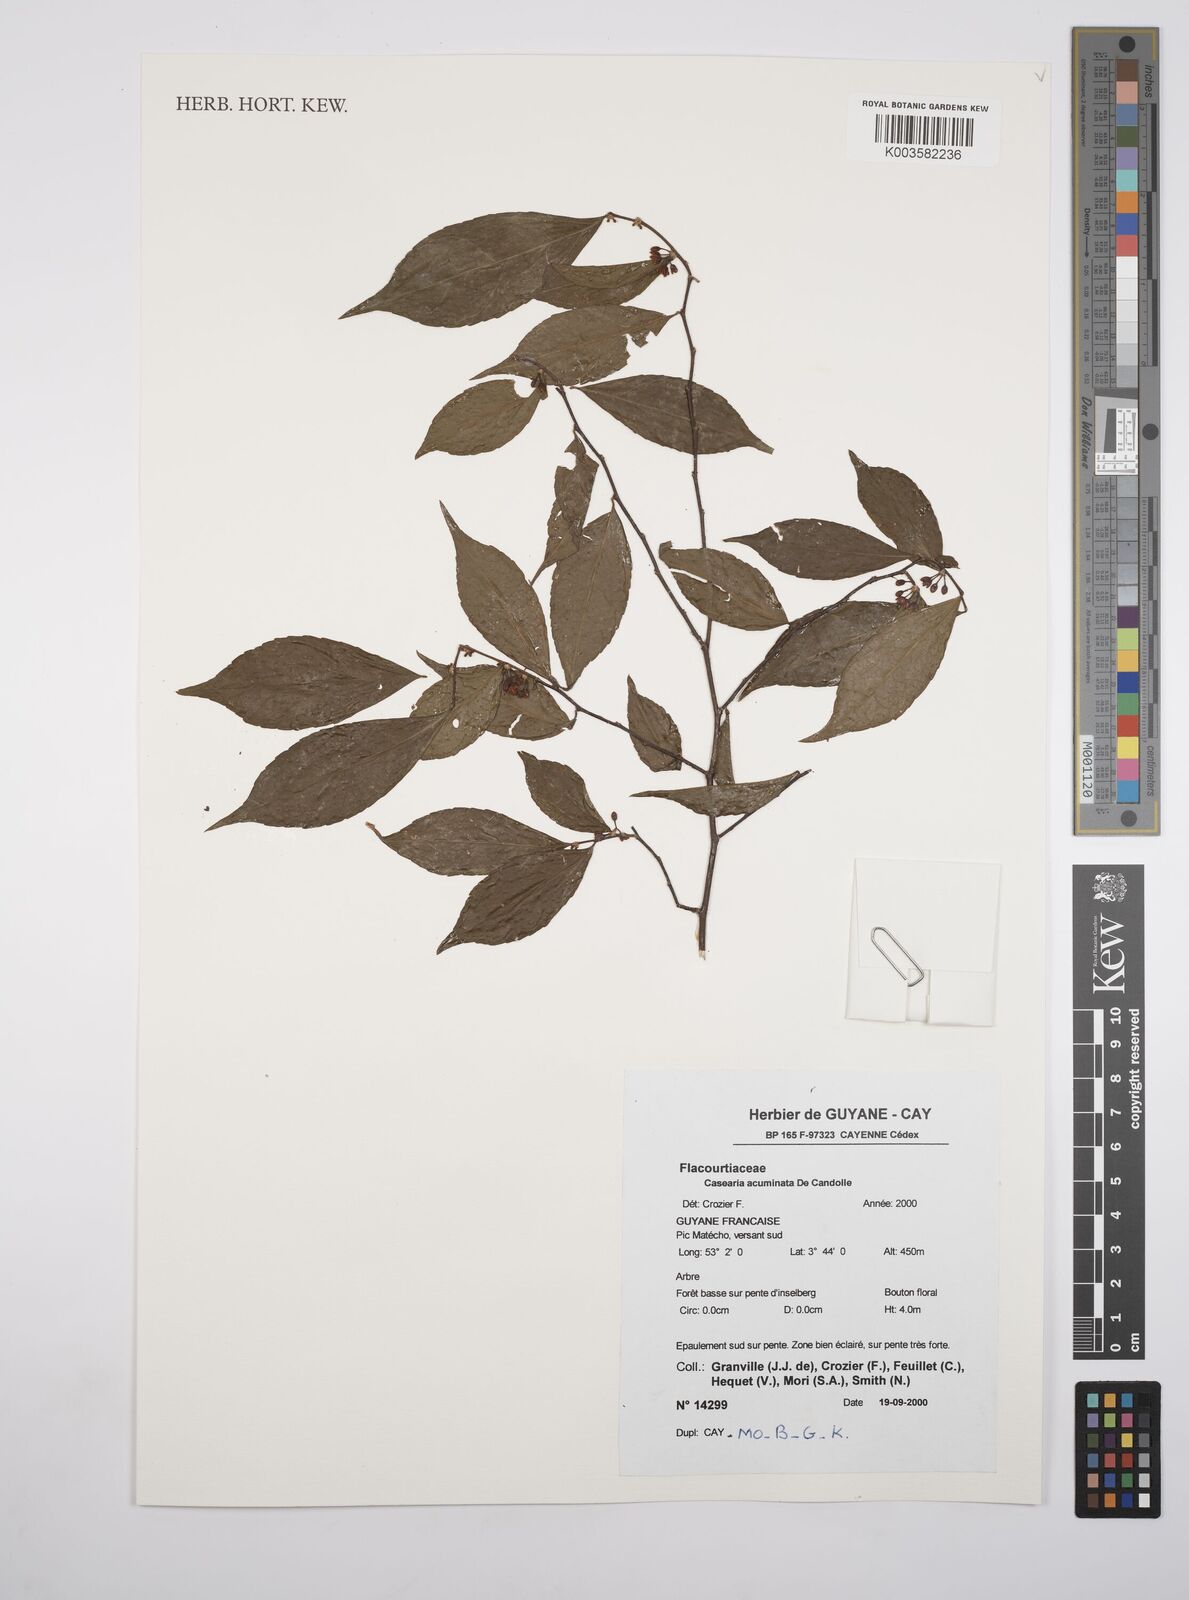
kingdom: Plantae
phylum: Tracheophyta
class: Magnoliopsida
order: Malpighiales
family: Salicaceae
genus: Casearia
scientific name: Casearia acuminata
